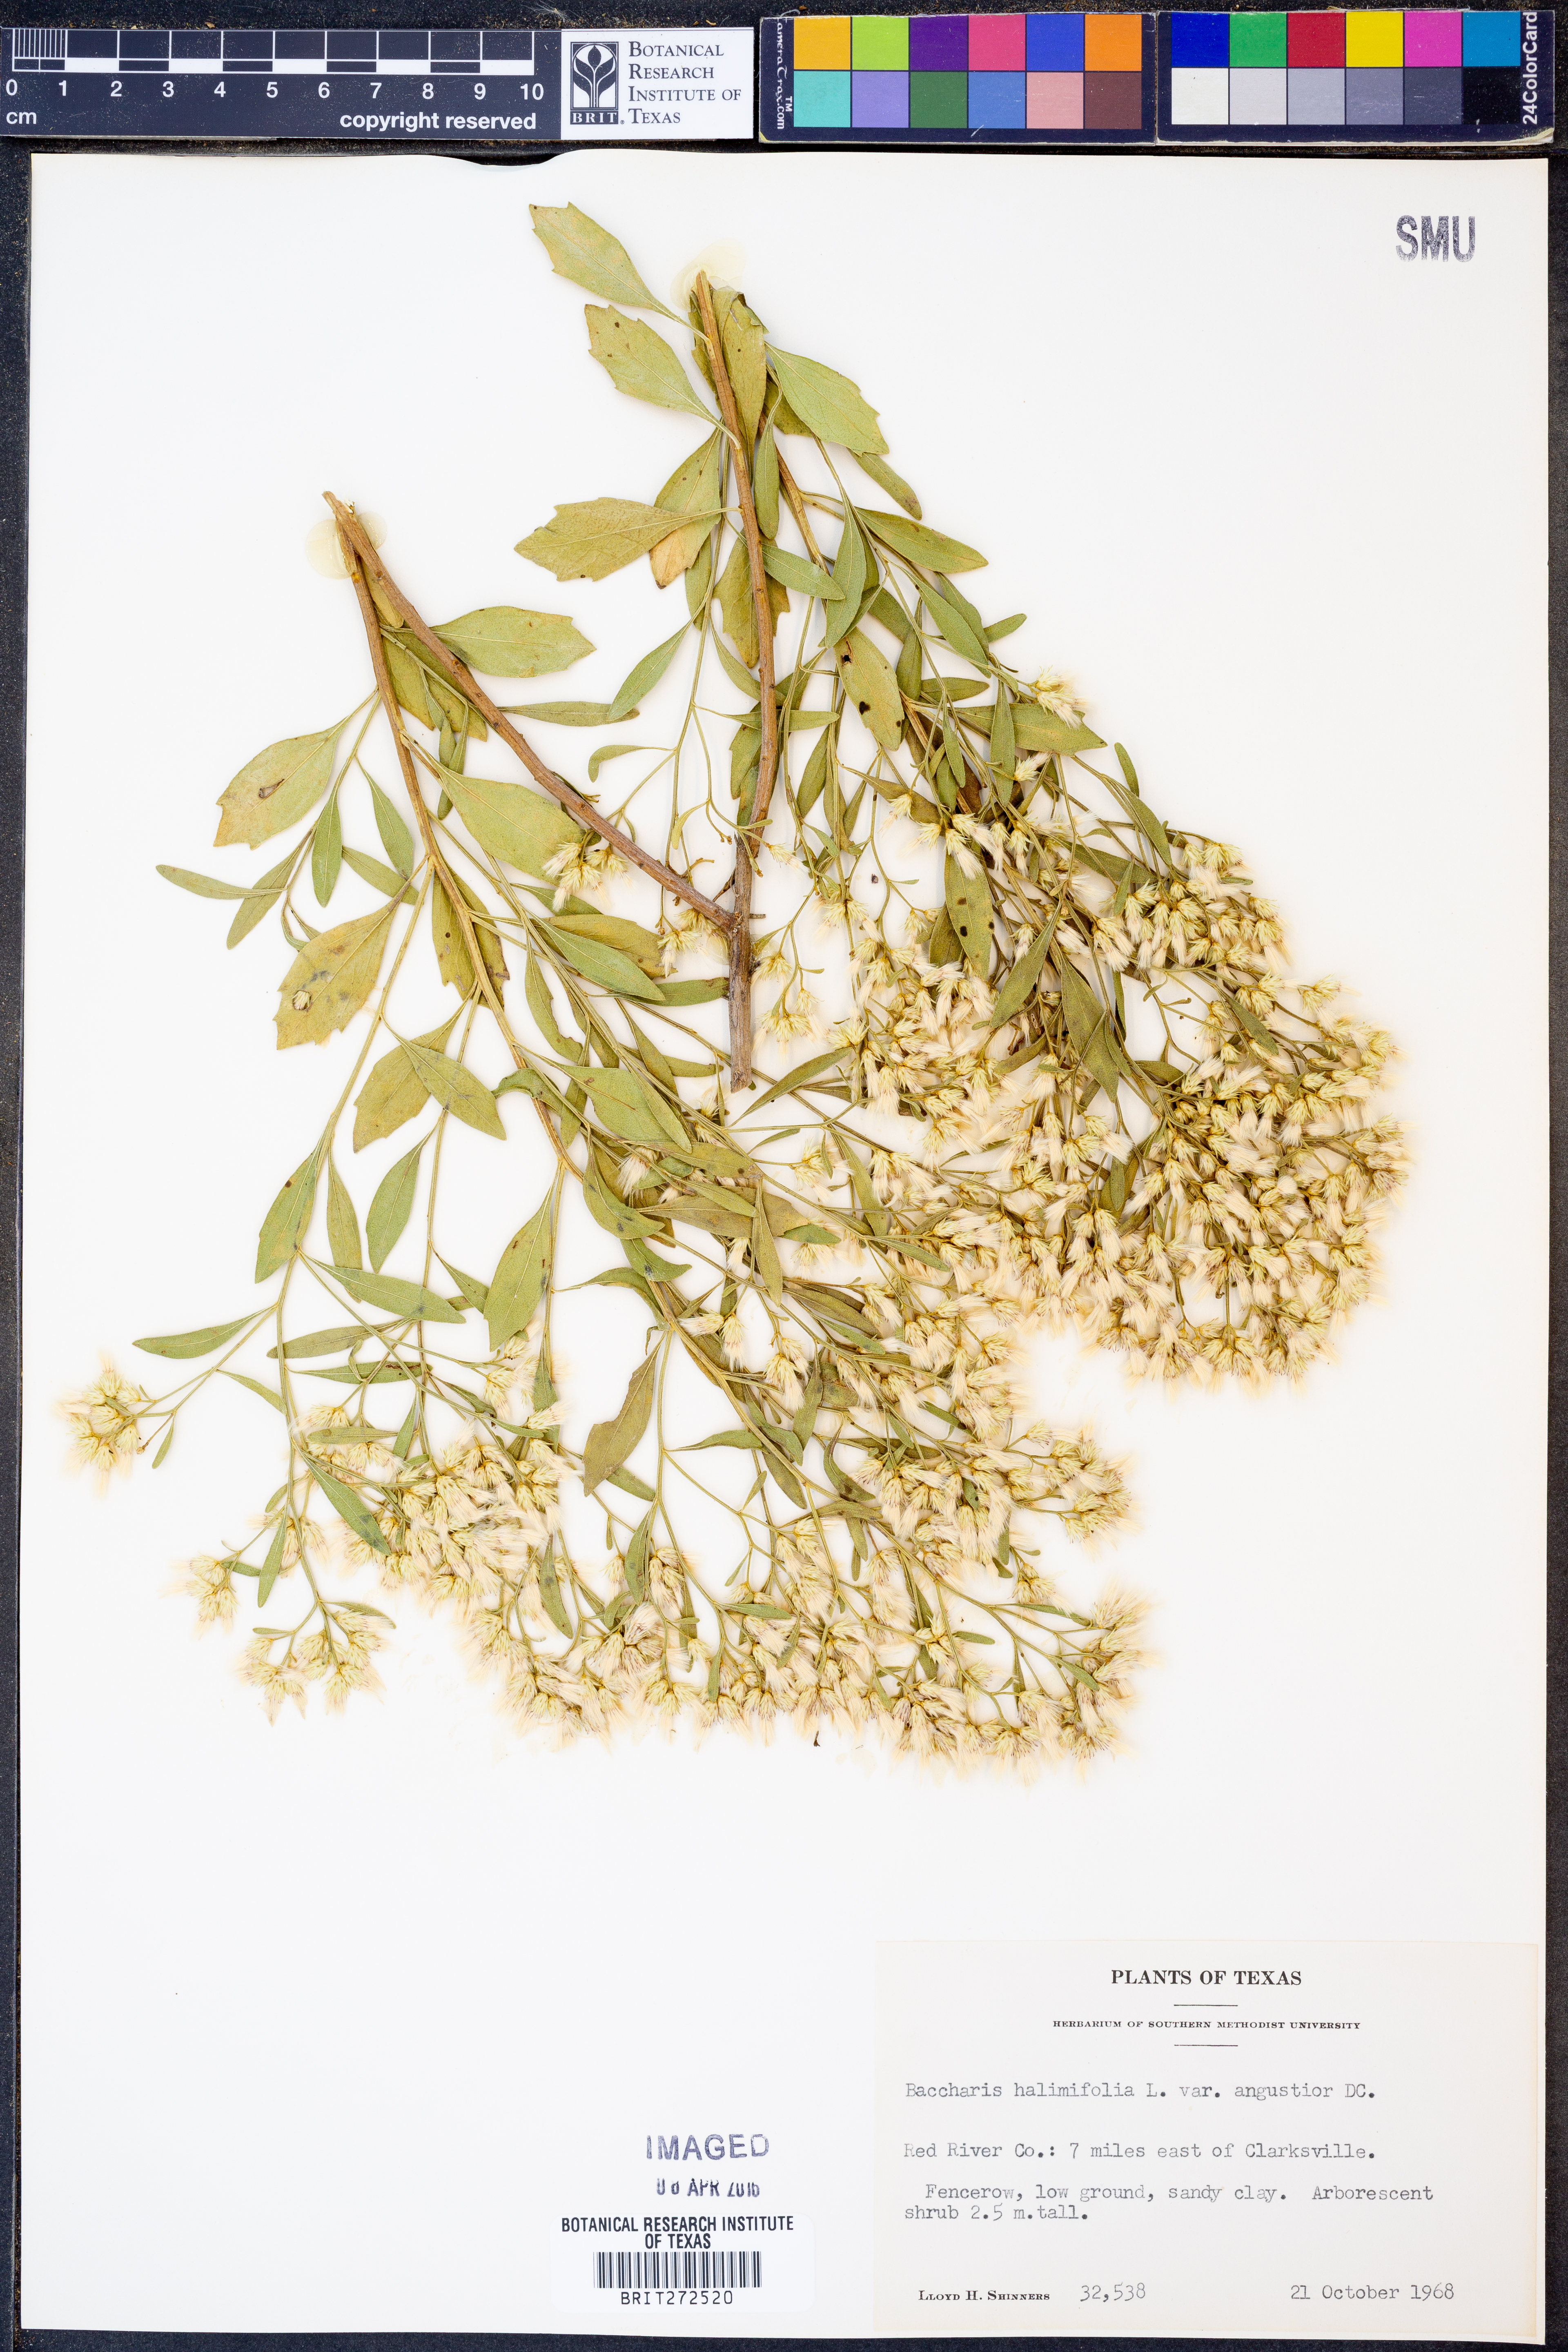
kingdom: Plantae
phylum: Tracheophyta
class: Magnoliopsida
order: Asterales
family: Asteraceae
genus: Baccharis
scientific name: Baccharis halimifolia
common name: Eastern baccharis
